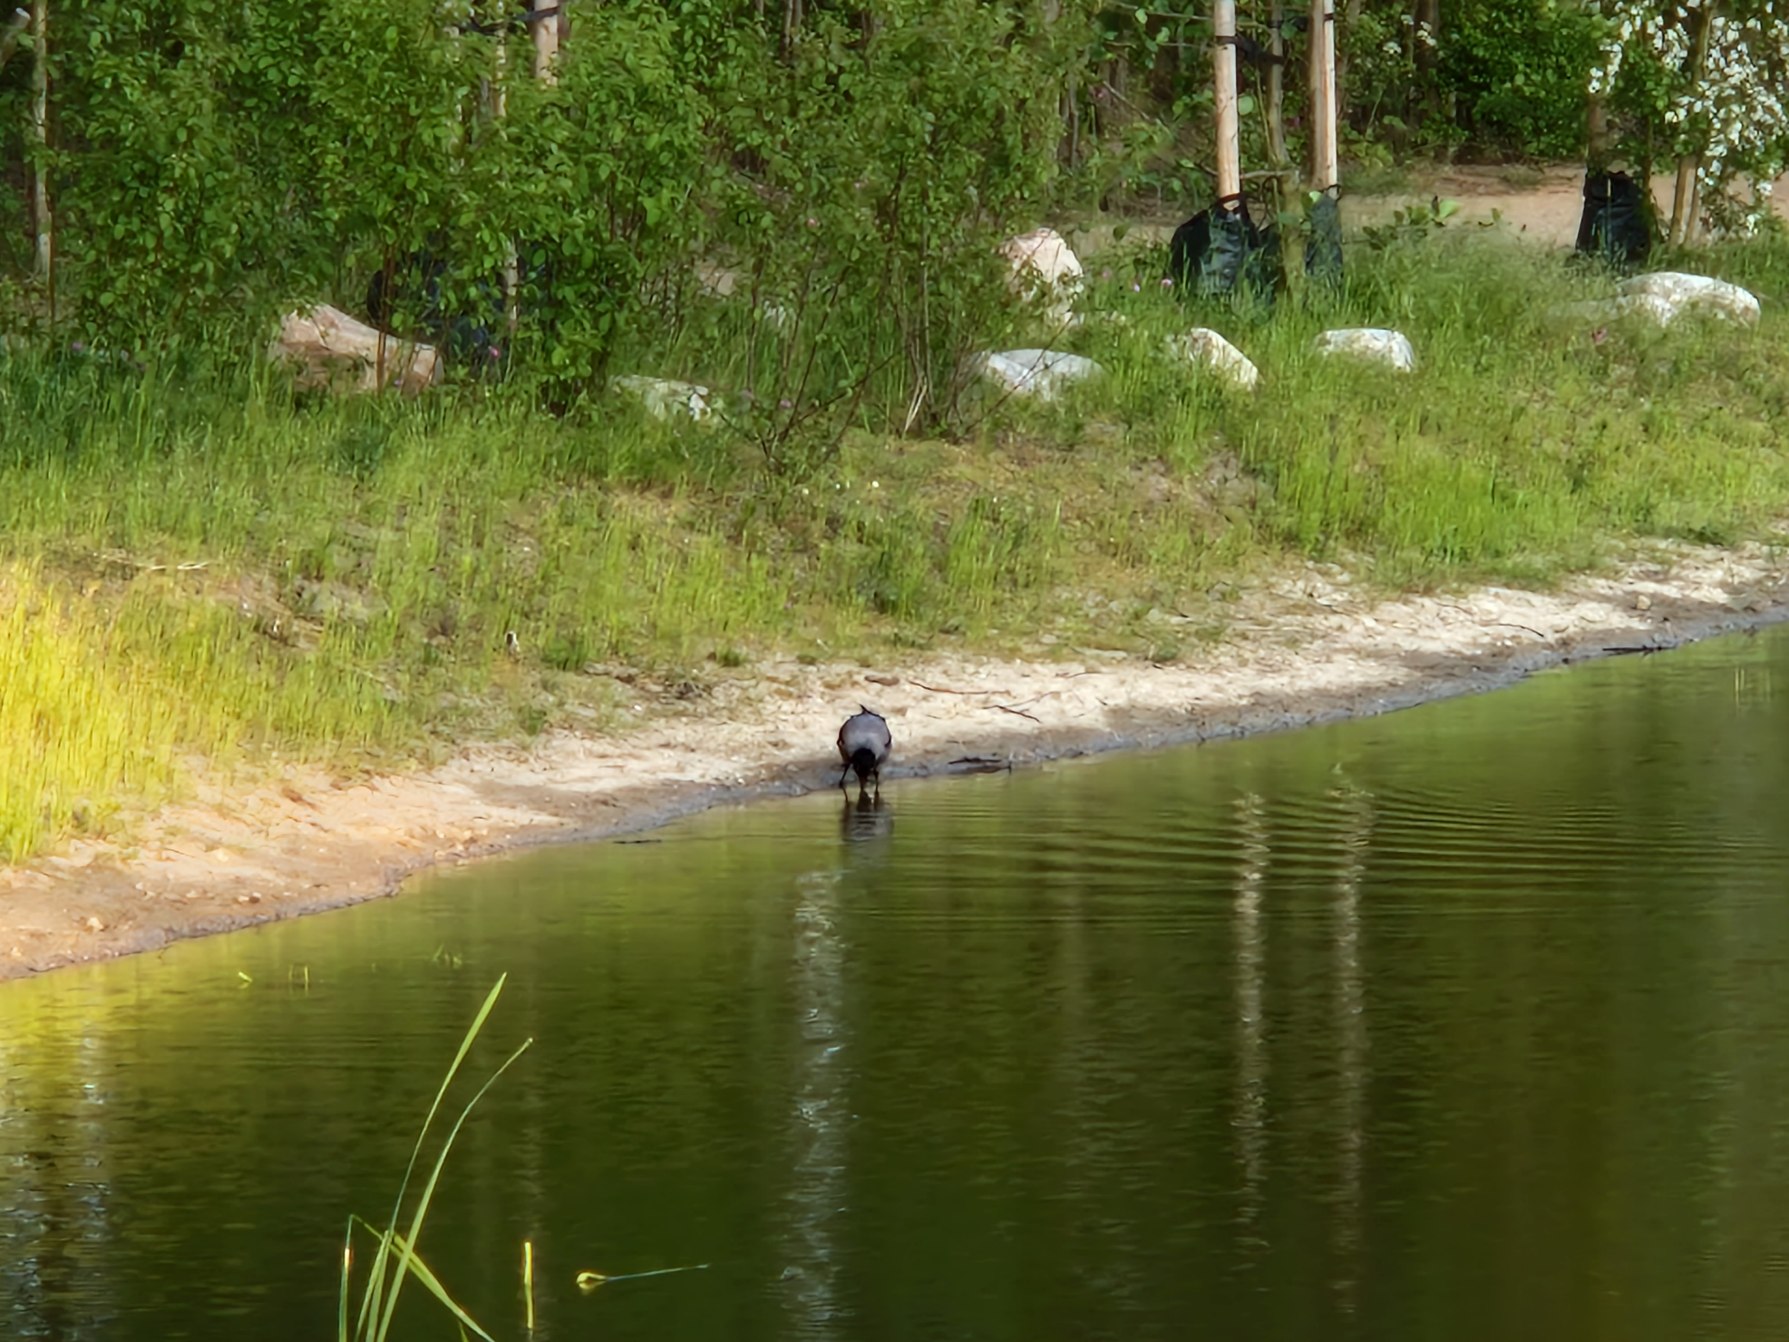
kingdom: Animalia
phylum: Chordata
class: Aves
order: Passeriformes
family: Corvidae
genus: Corvus
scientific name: Corvus cornix
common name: Gråkrage
